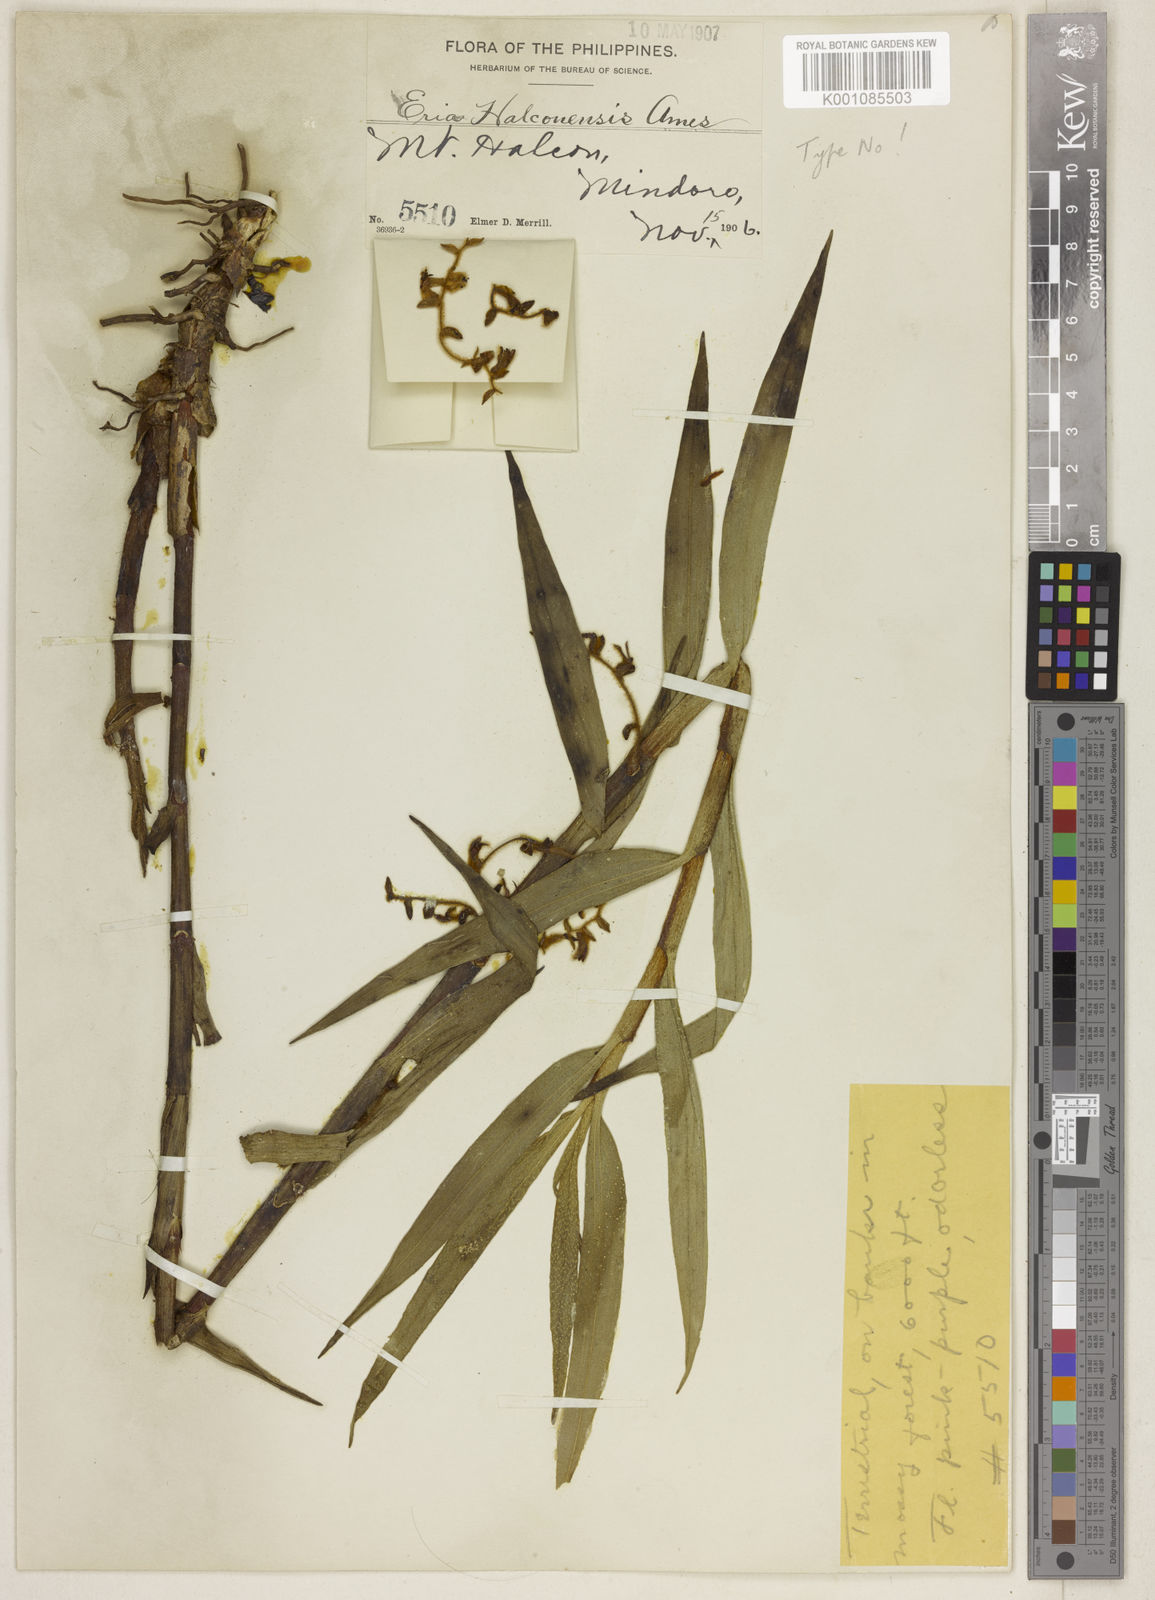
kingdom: Plantae
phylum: Tracheophyta
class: Liliopsida
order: Asparagales
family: Orchidaceae
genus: Eria
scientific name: Eria halconensis
